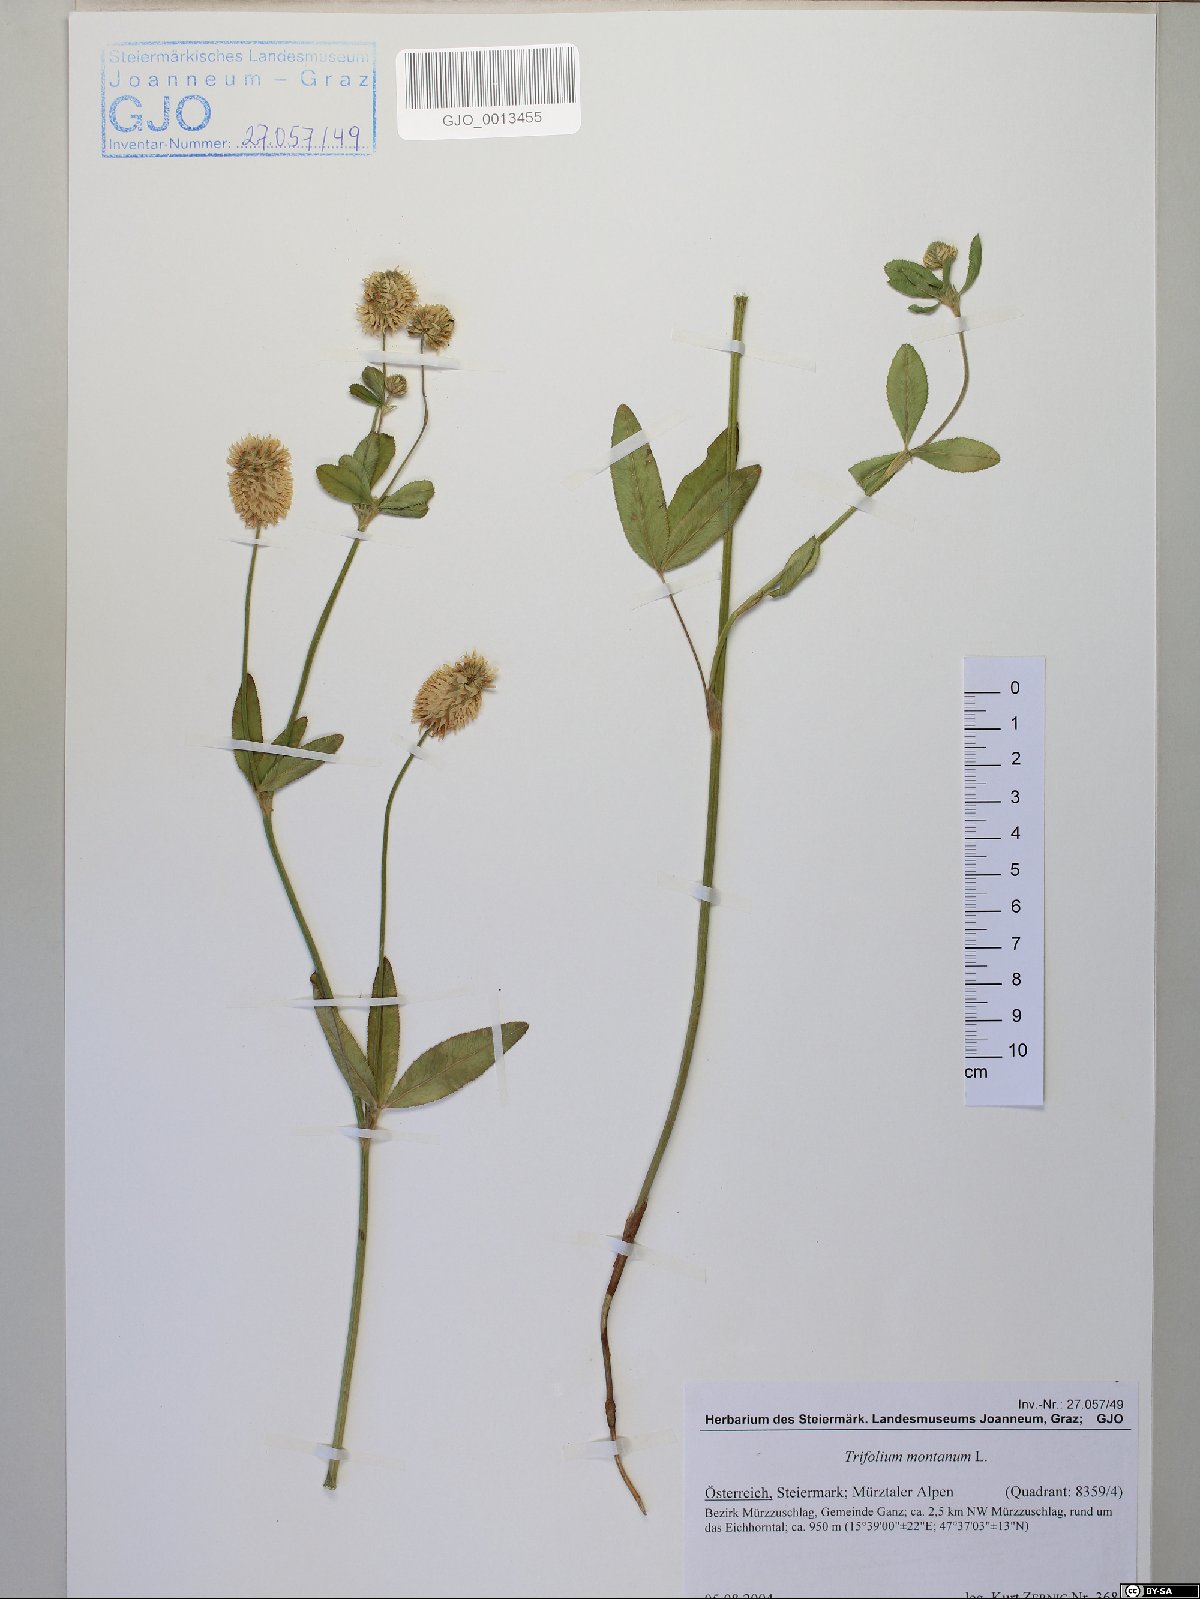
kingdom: Plantae
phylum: Tracheophyta
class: Magnoliopsida
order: Fabales
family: Fabaceae
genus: Trifolium
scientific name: Trifolium montanum
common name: Mountain clover
